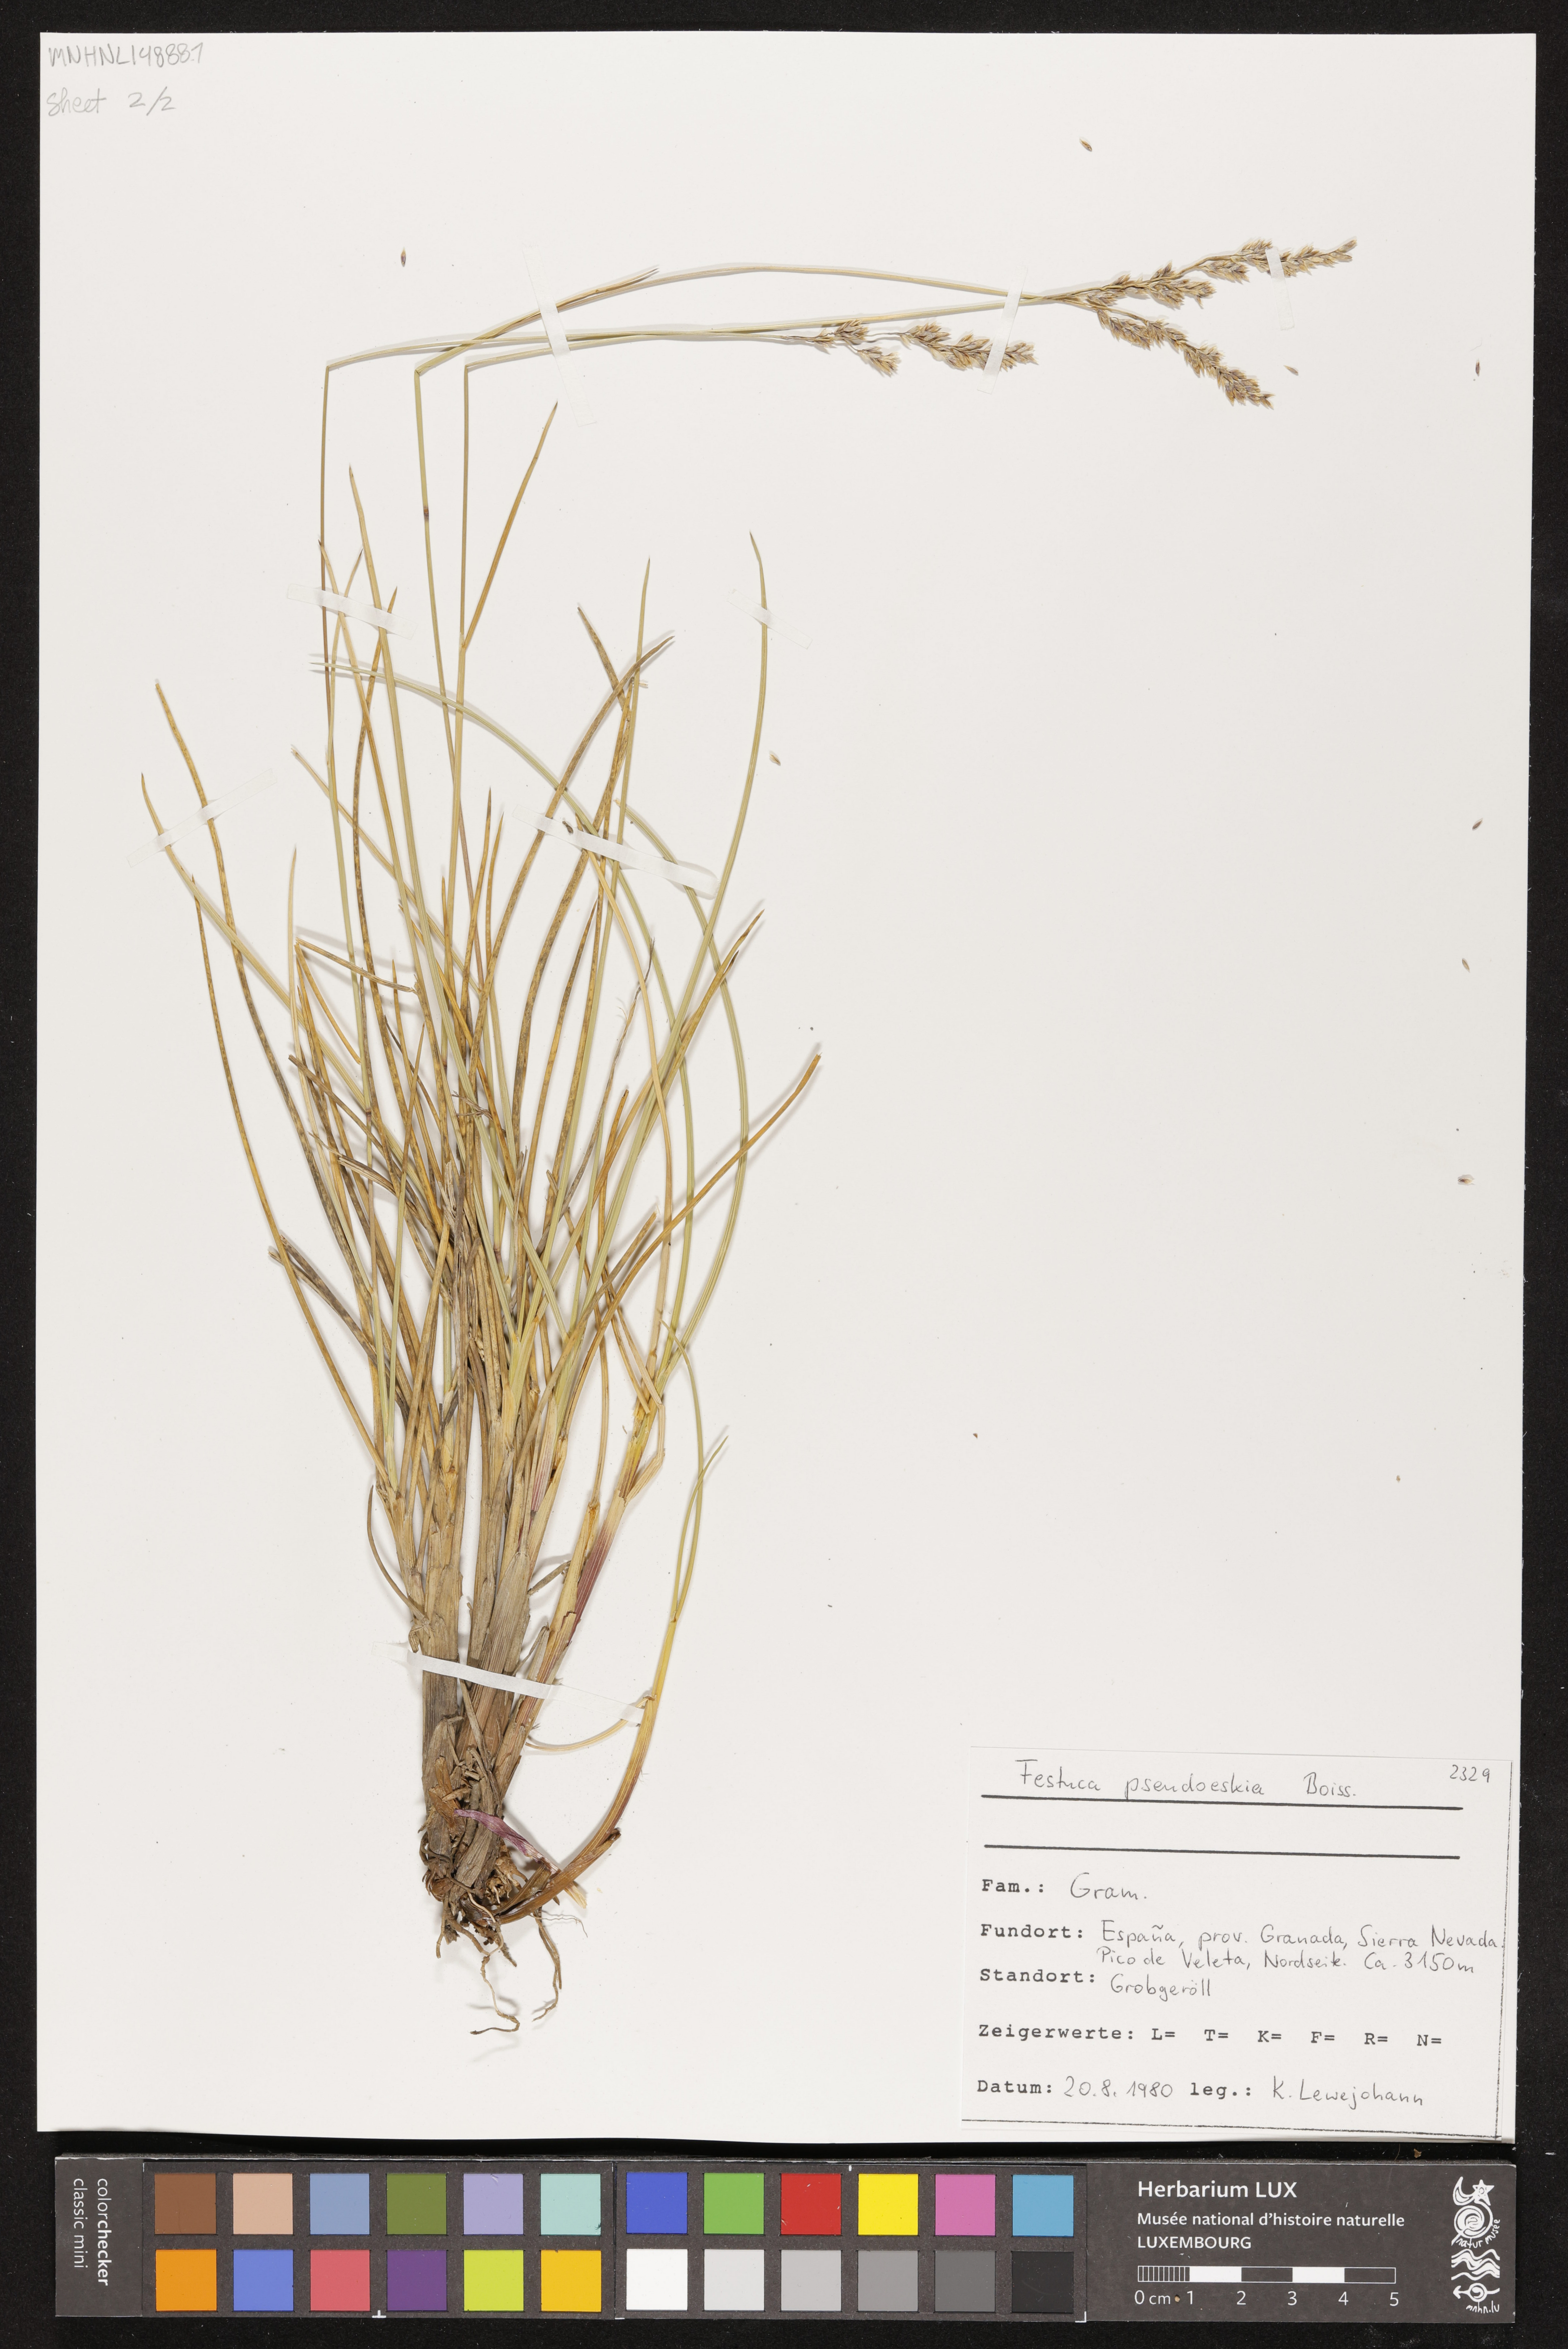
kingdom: Plantae
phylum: Tracheophyta
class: Liliopsida
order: Poales
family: Poaceae
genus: Festuca
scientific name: Festuca pseudeskia
